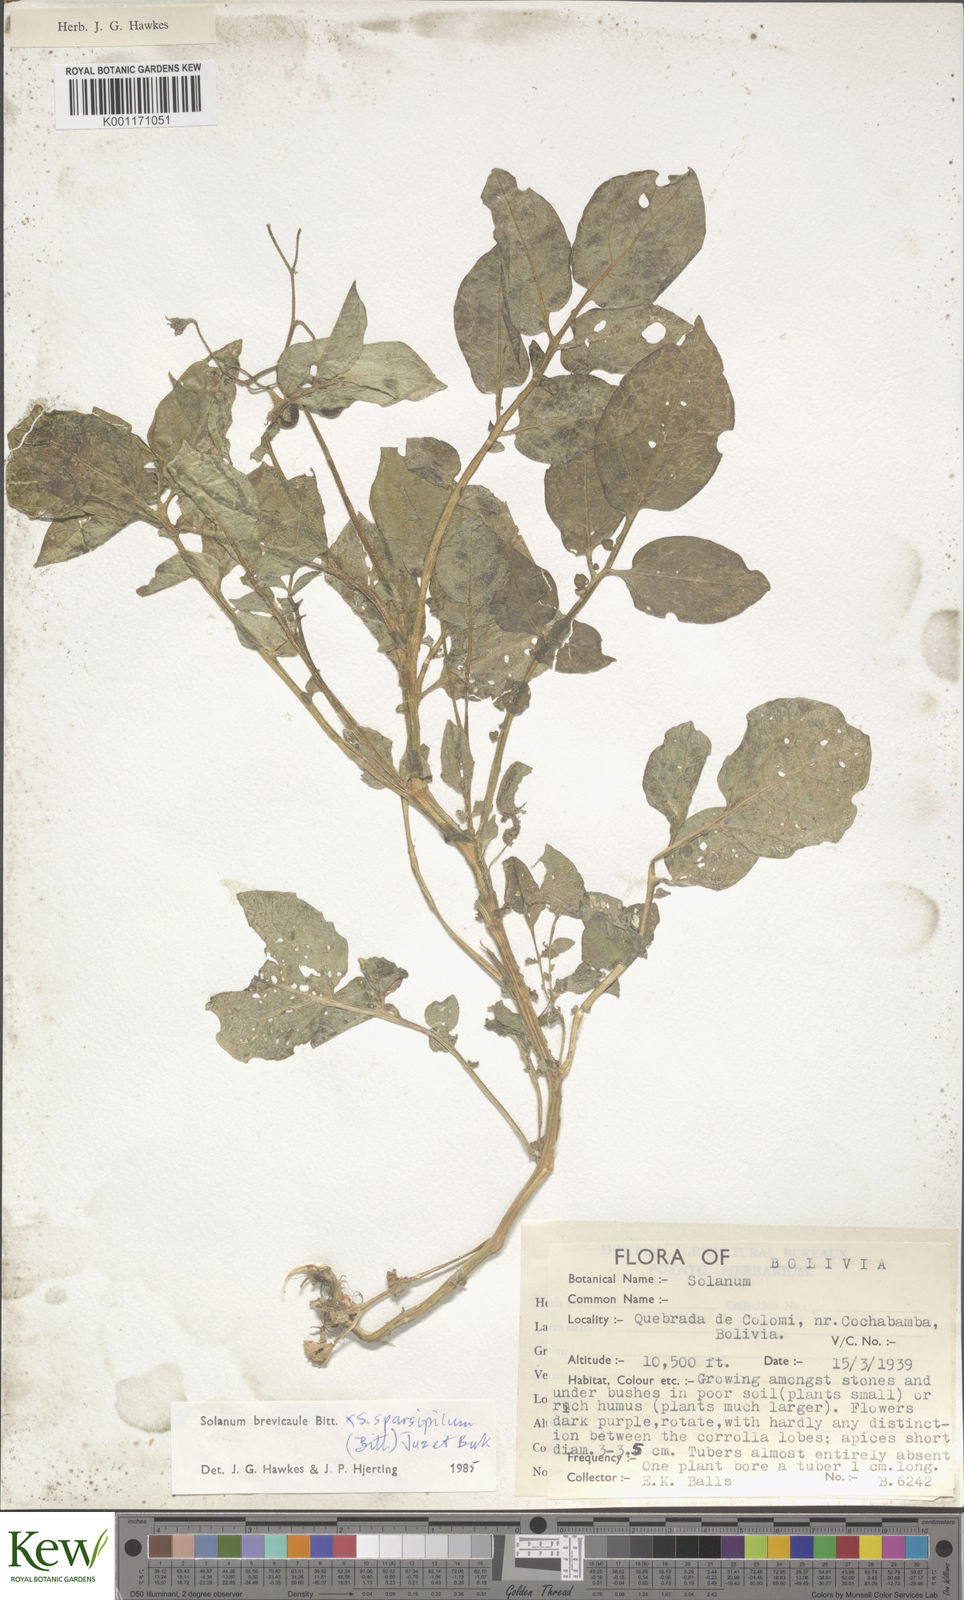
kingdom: Plantae
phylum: Tracheophyta
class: Magnoliopsida
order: Solanales
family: Solanaceae
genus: Solanum
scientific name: Solanum brevicaule
